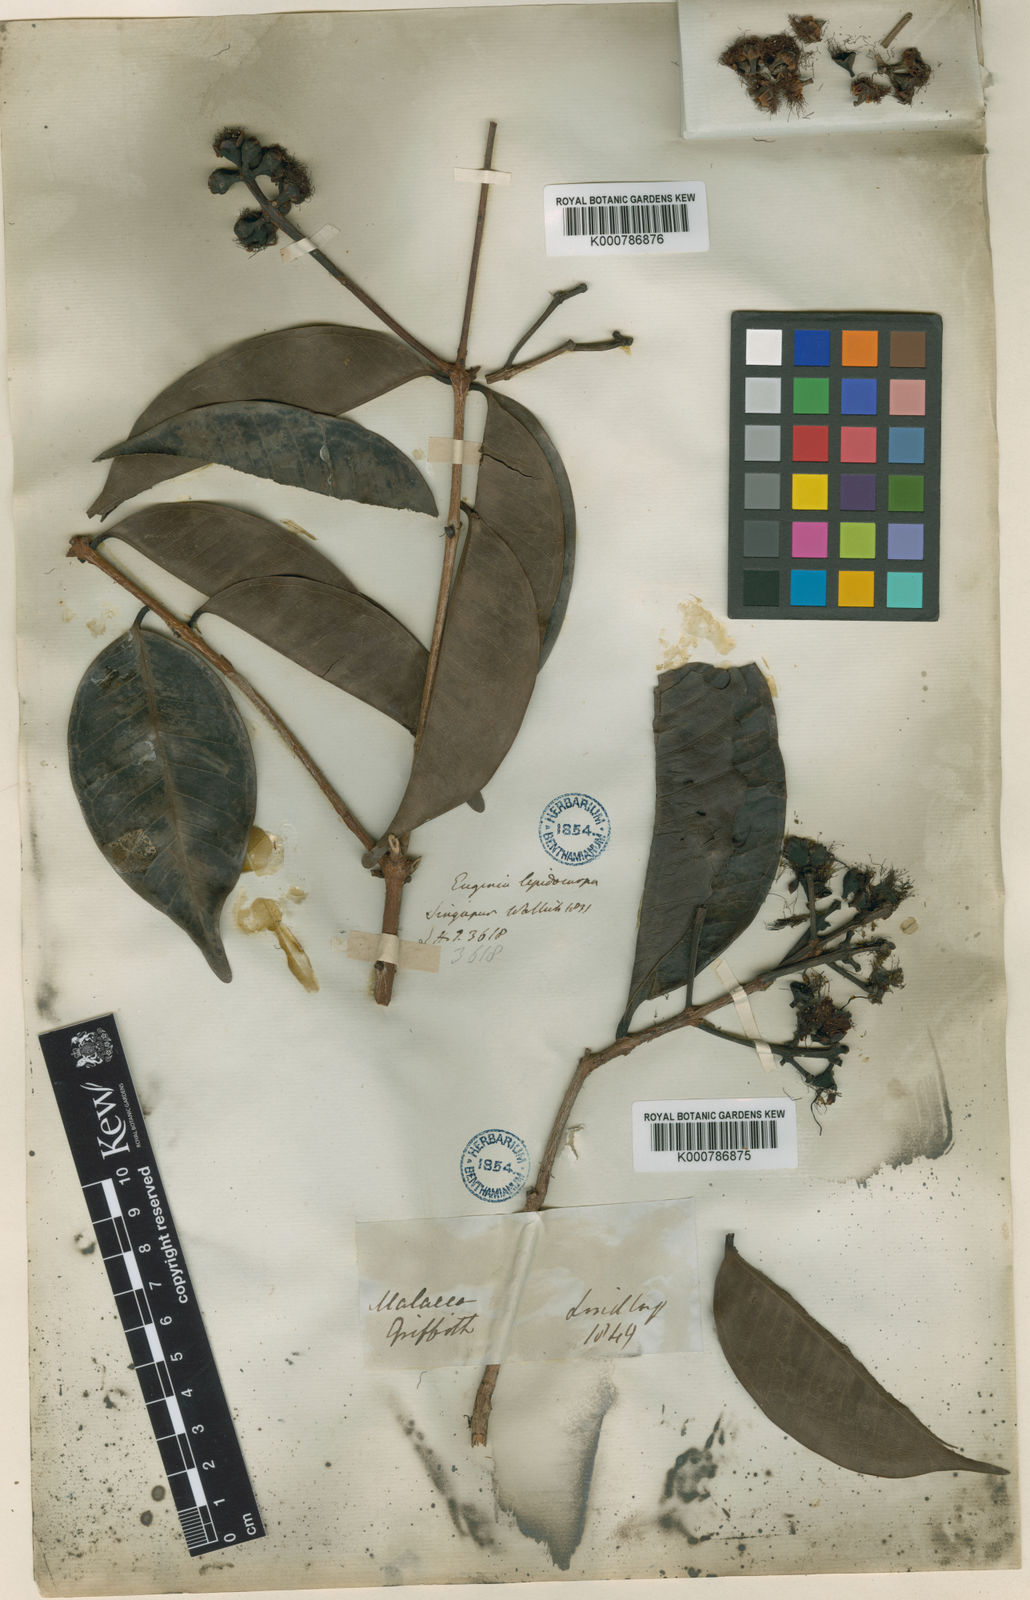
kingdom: Plantae
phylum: Tracheophyta
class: Magnoliopsida
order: Myrtales
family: Myrtaceae
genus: Syzygium
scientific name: Syzygium urceolatum
